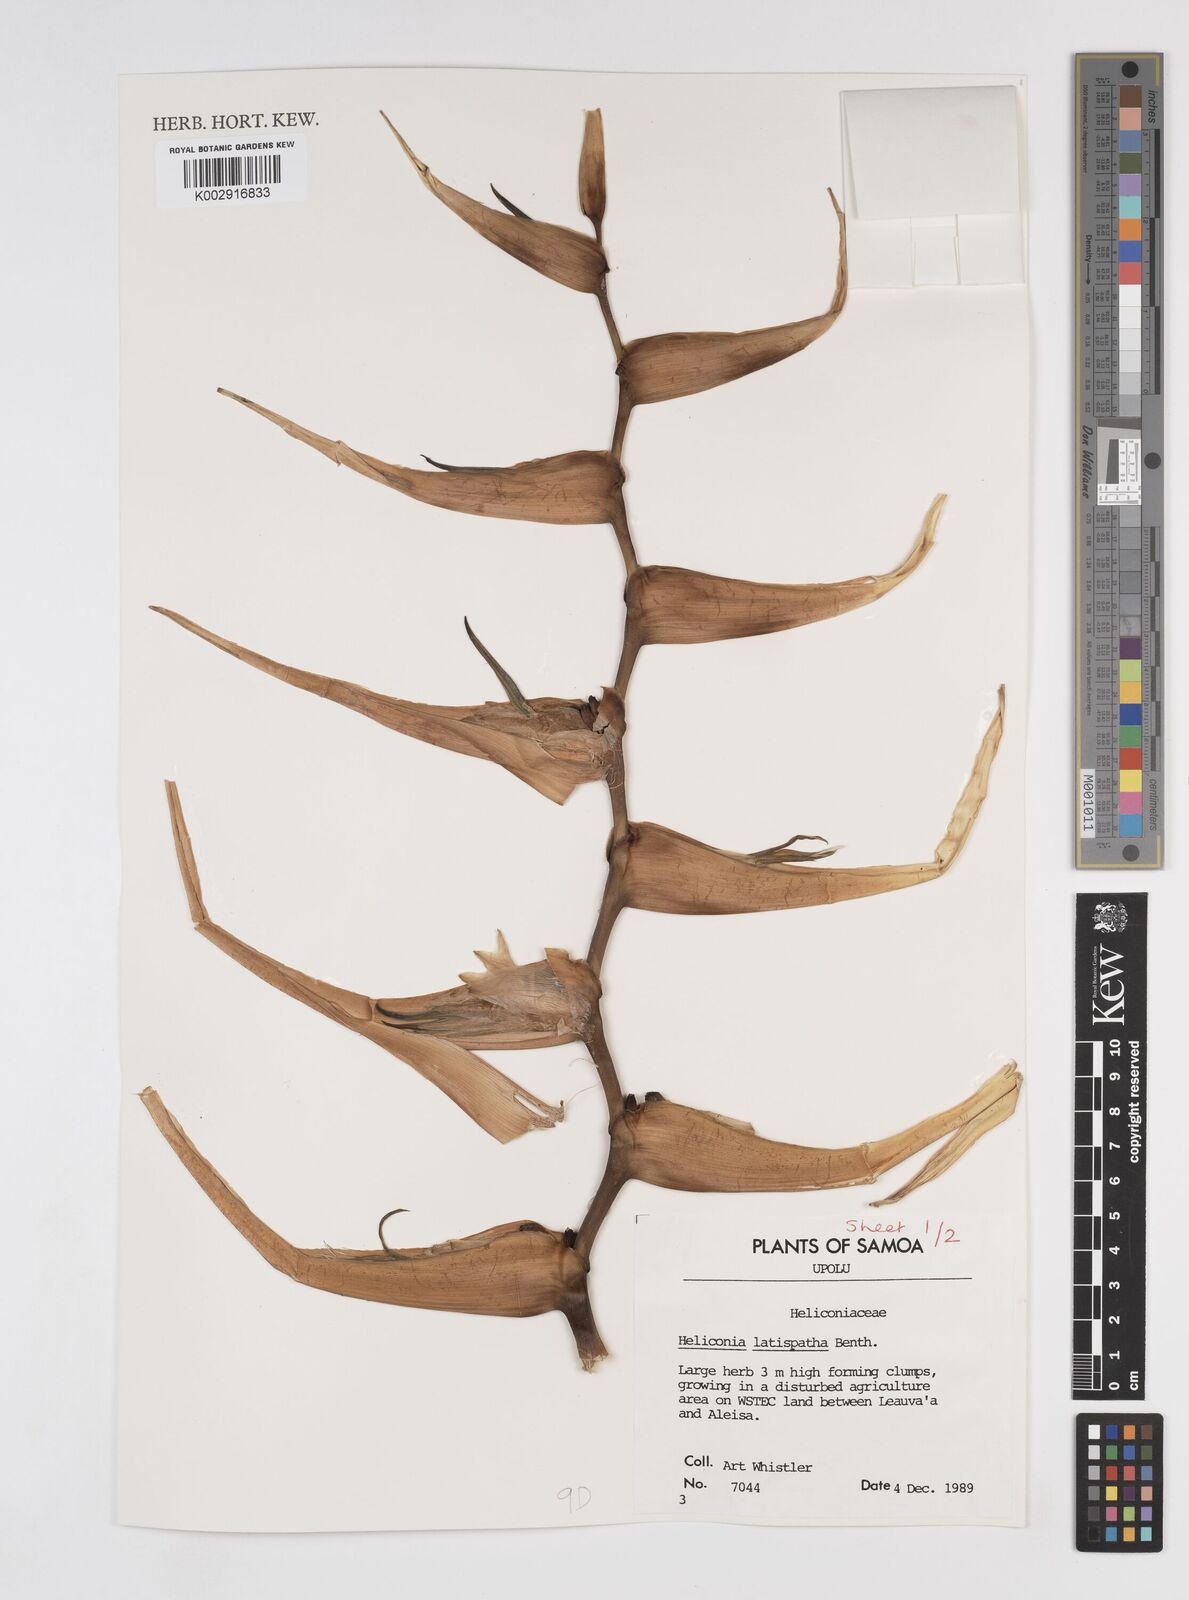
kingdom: Plantae
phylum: Tracheophyta
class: Liliopsida
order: Zingiberales
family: Heliconiaceae
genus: Heliconia
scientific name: Heliconia latispatha
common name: Expanded lobsterclaw
